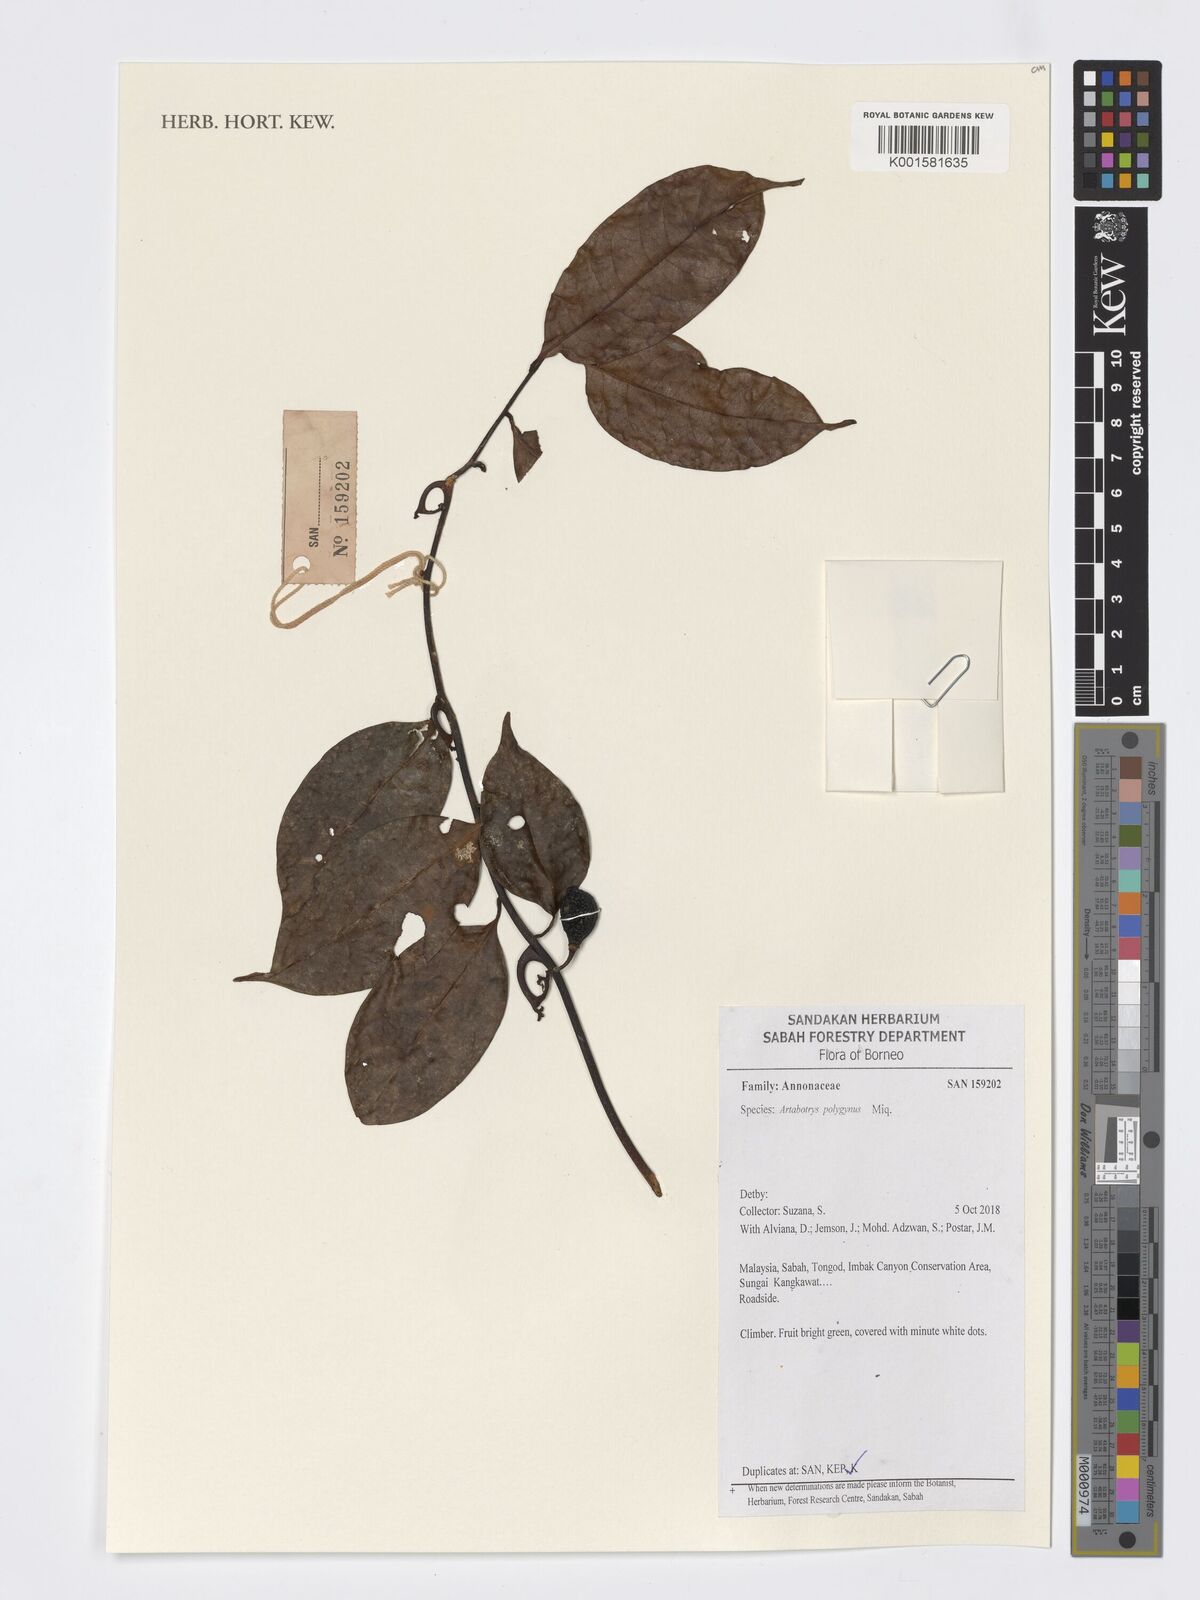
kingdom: Plantae
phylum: Tracheophyta
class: Magnoliopsida
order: Magnoliales
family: Annonaceae
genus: Artabotrys
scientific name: Artabotrys polygynus
